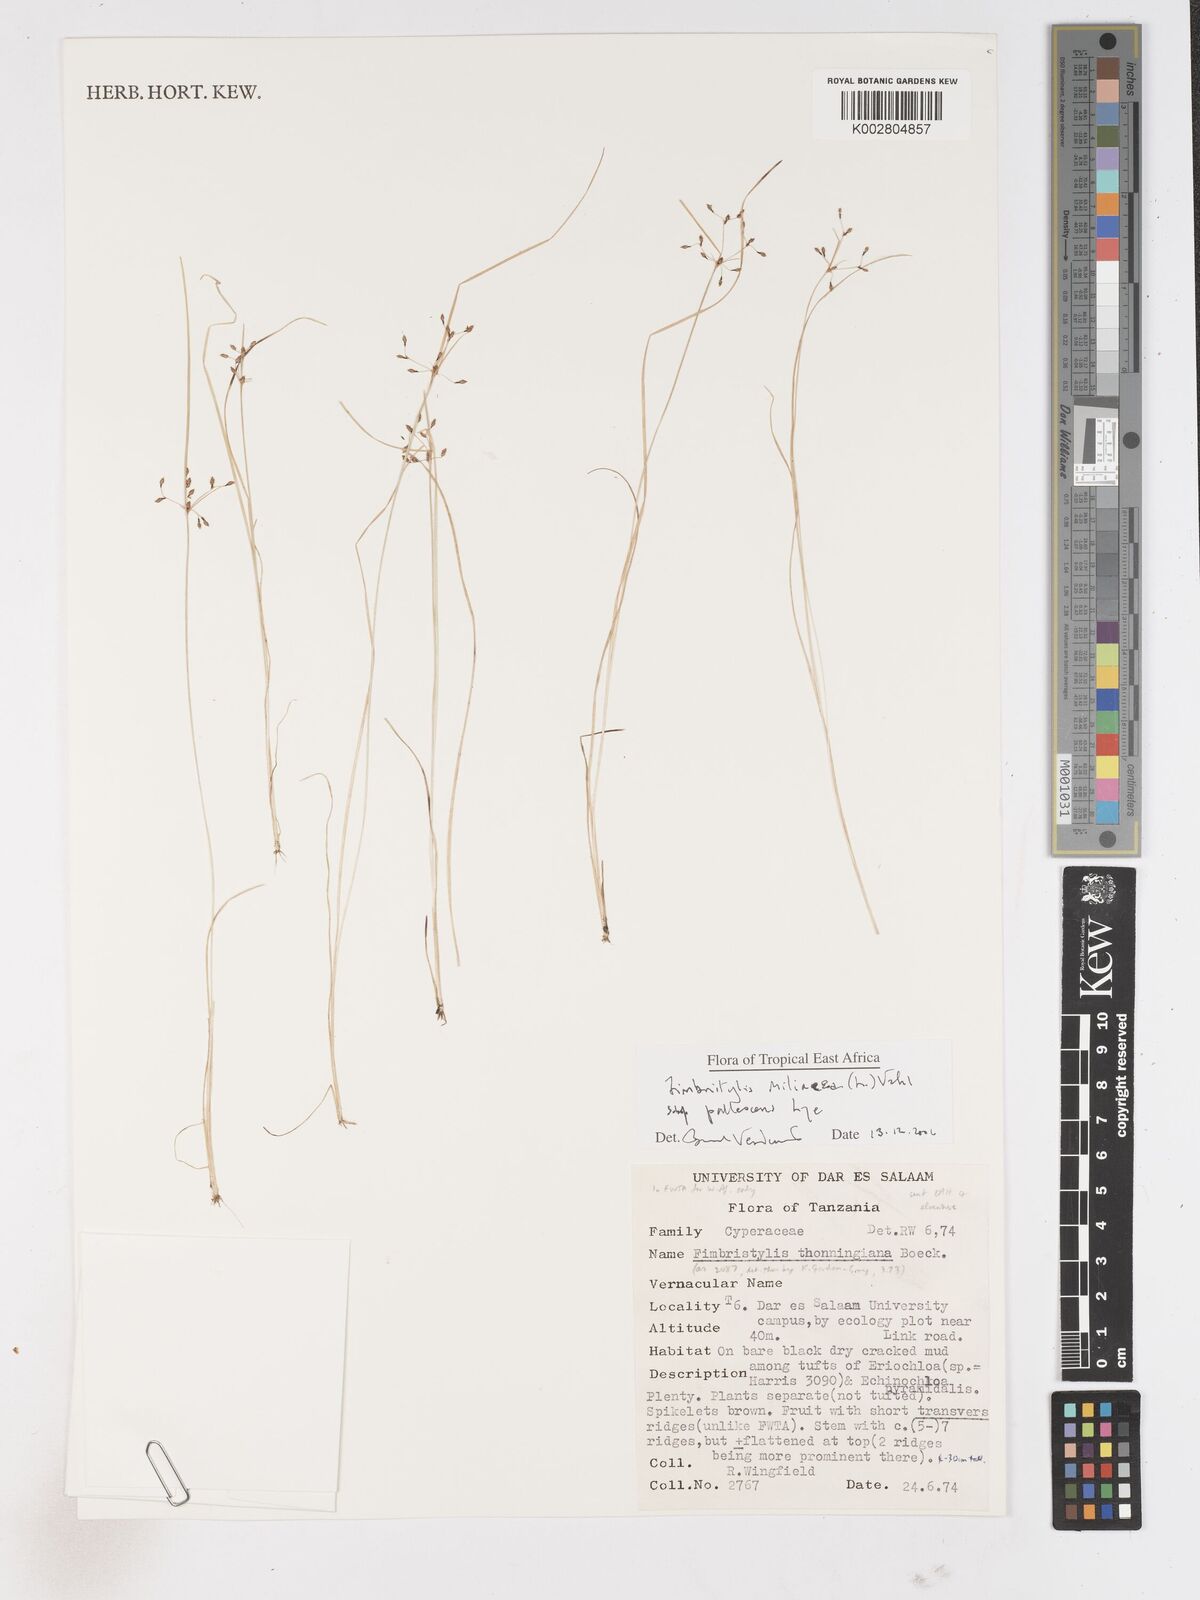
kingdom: Plantae
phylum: Tracheophyta
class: Liliopsida
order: Poales
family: Cyperaceae
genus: Fimbristylis
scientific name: Fimbristylis quinquangularis
